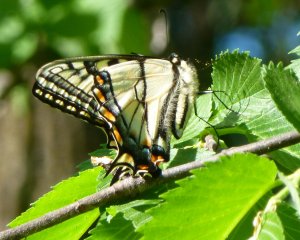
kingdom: Animalia
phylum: Arthropoda
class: Insecta
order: Lepidoptera
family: Papilionidae
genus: Pterourus
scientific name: Pterourus canadensis
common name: Canadian Tiger Swallowtail
